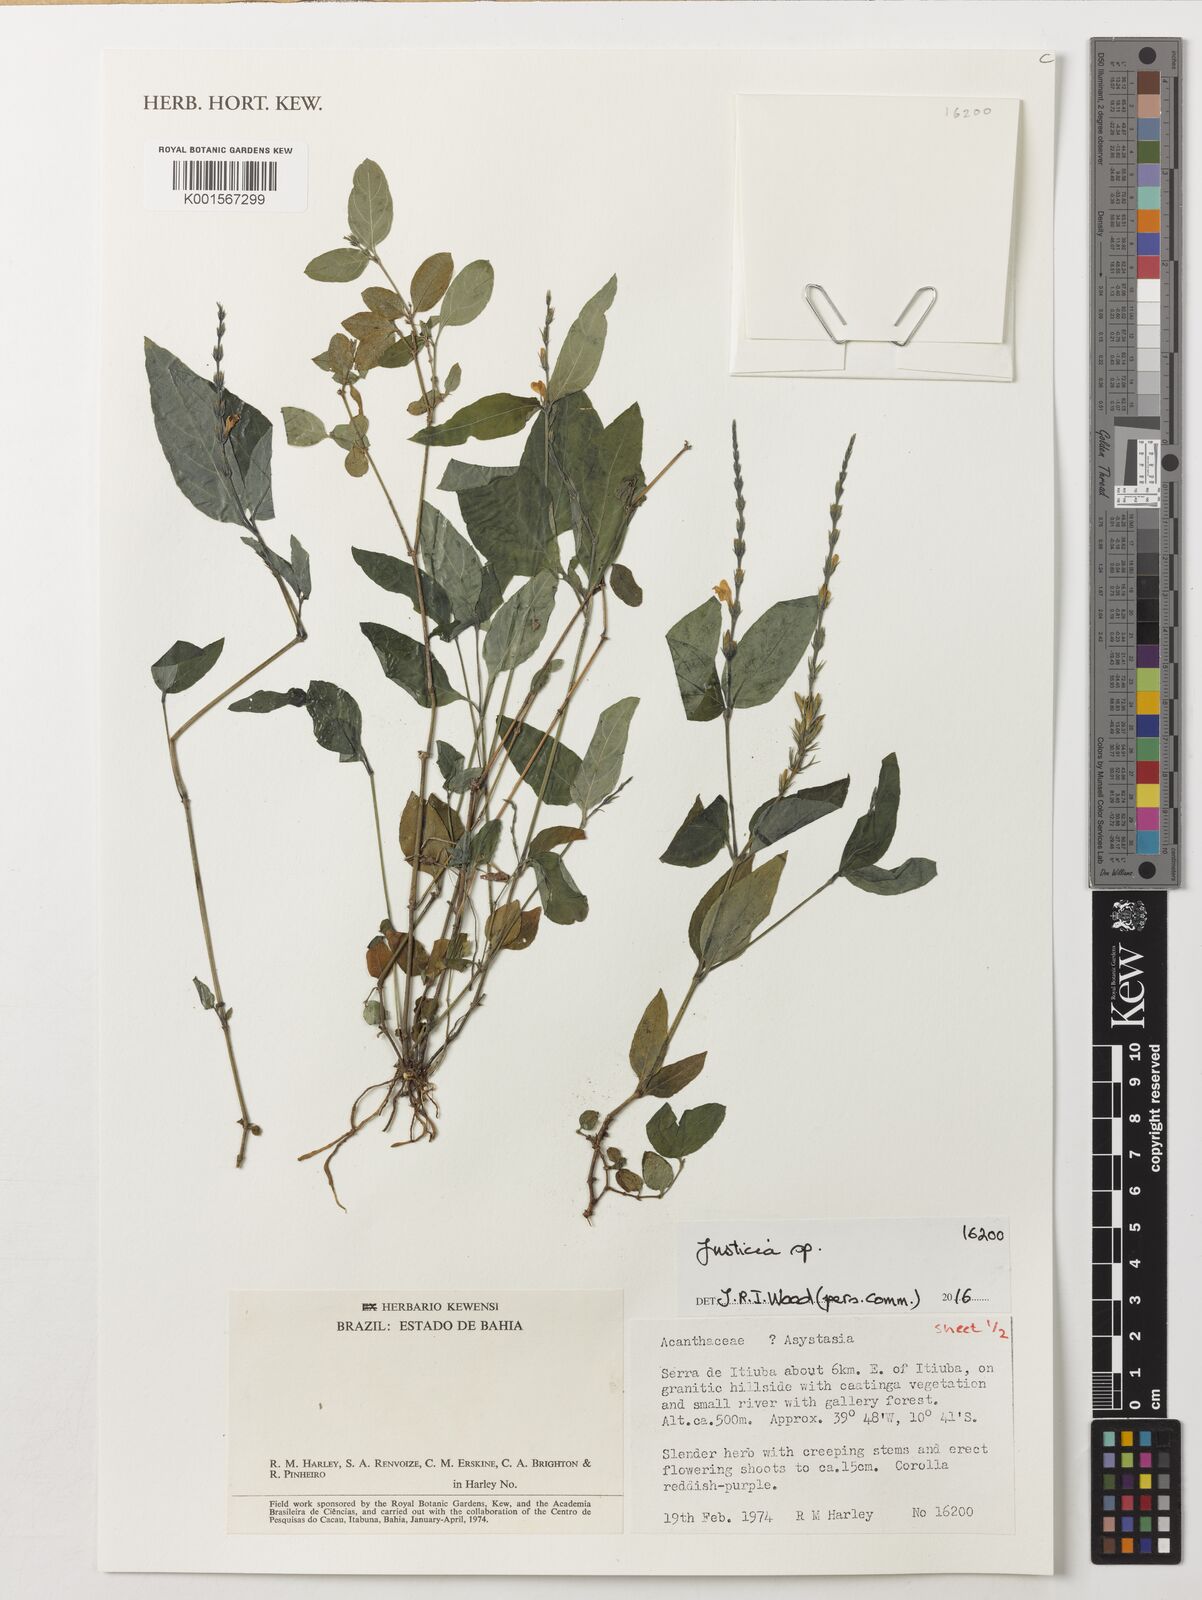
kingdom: Plantae
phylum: Tracheophyta
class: Magnoliopsida
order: Lamiales
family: Acanthaceae
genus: Justicia
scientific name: Justicia
